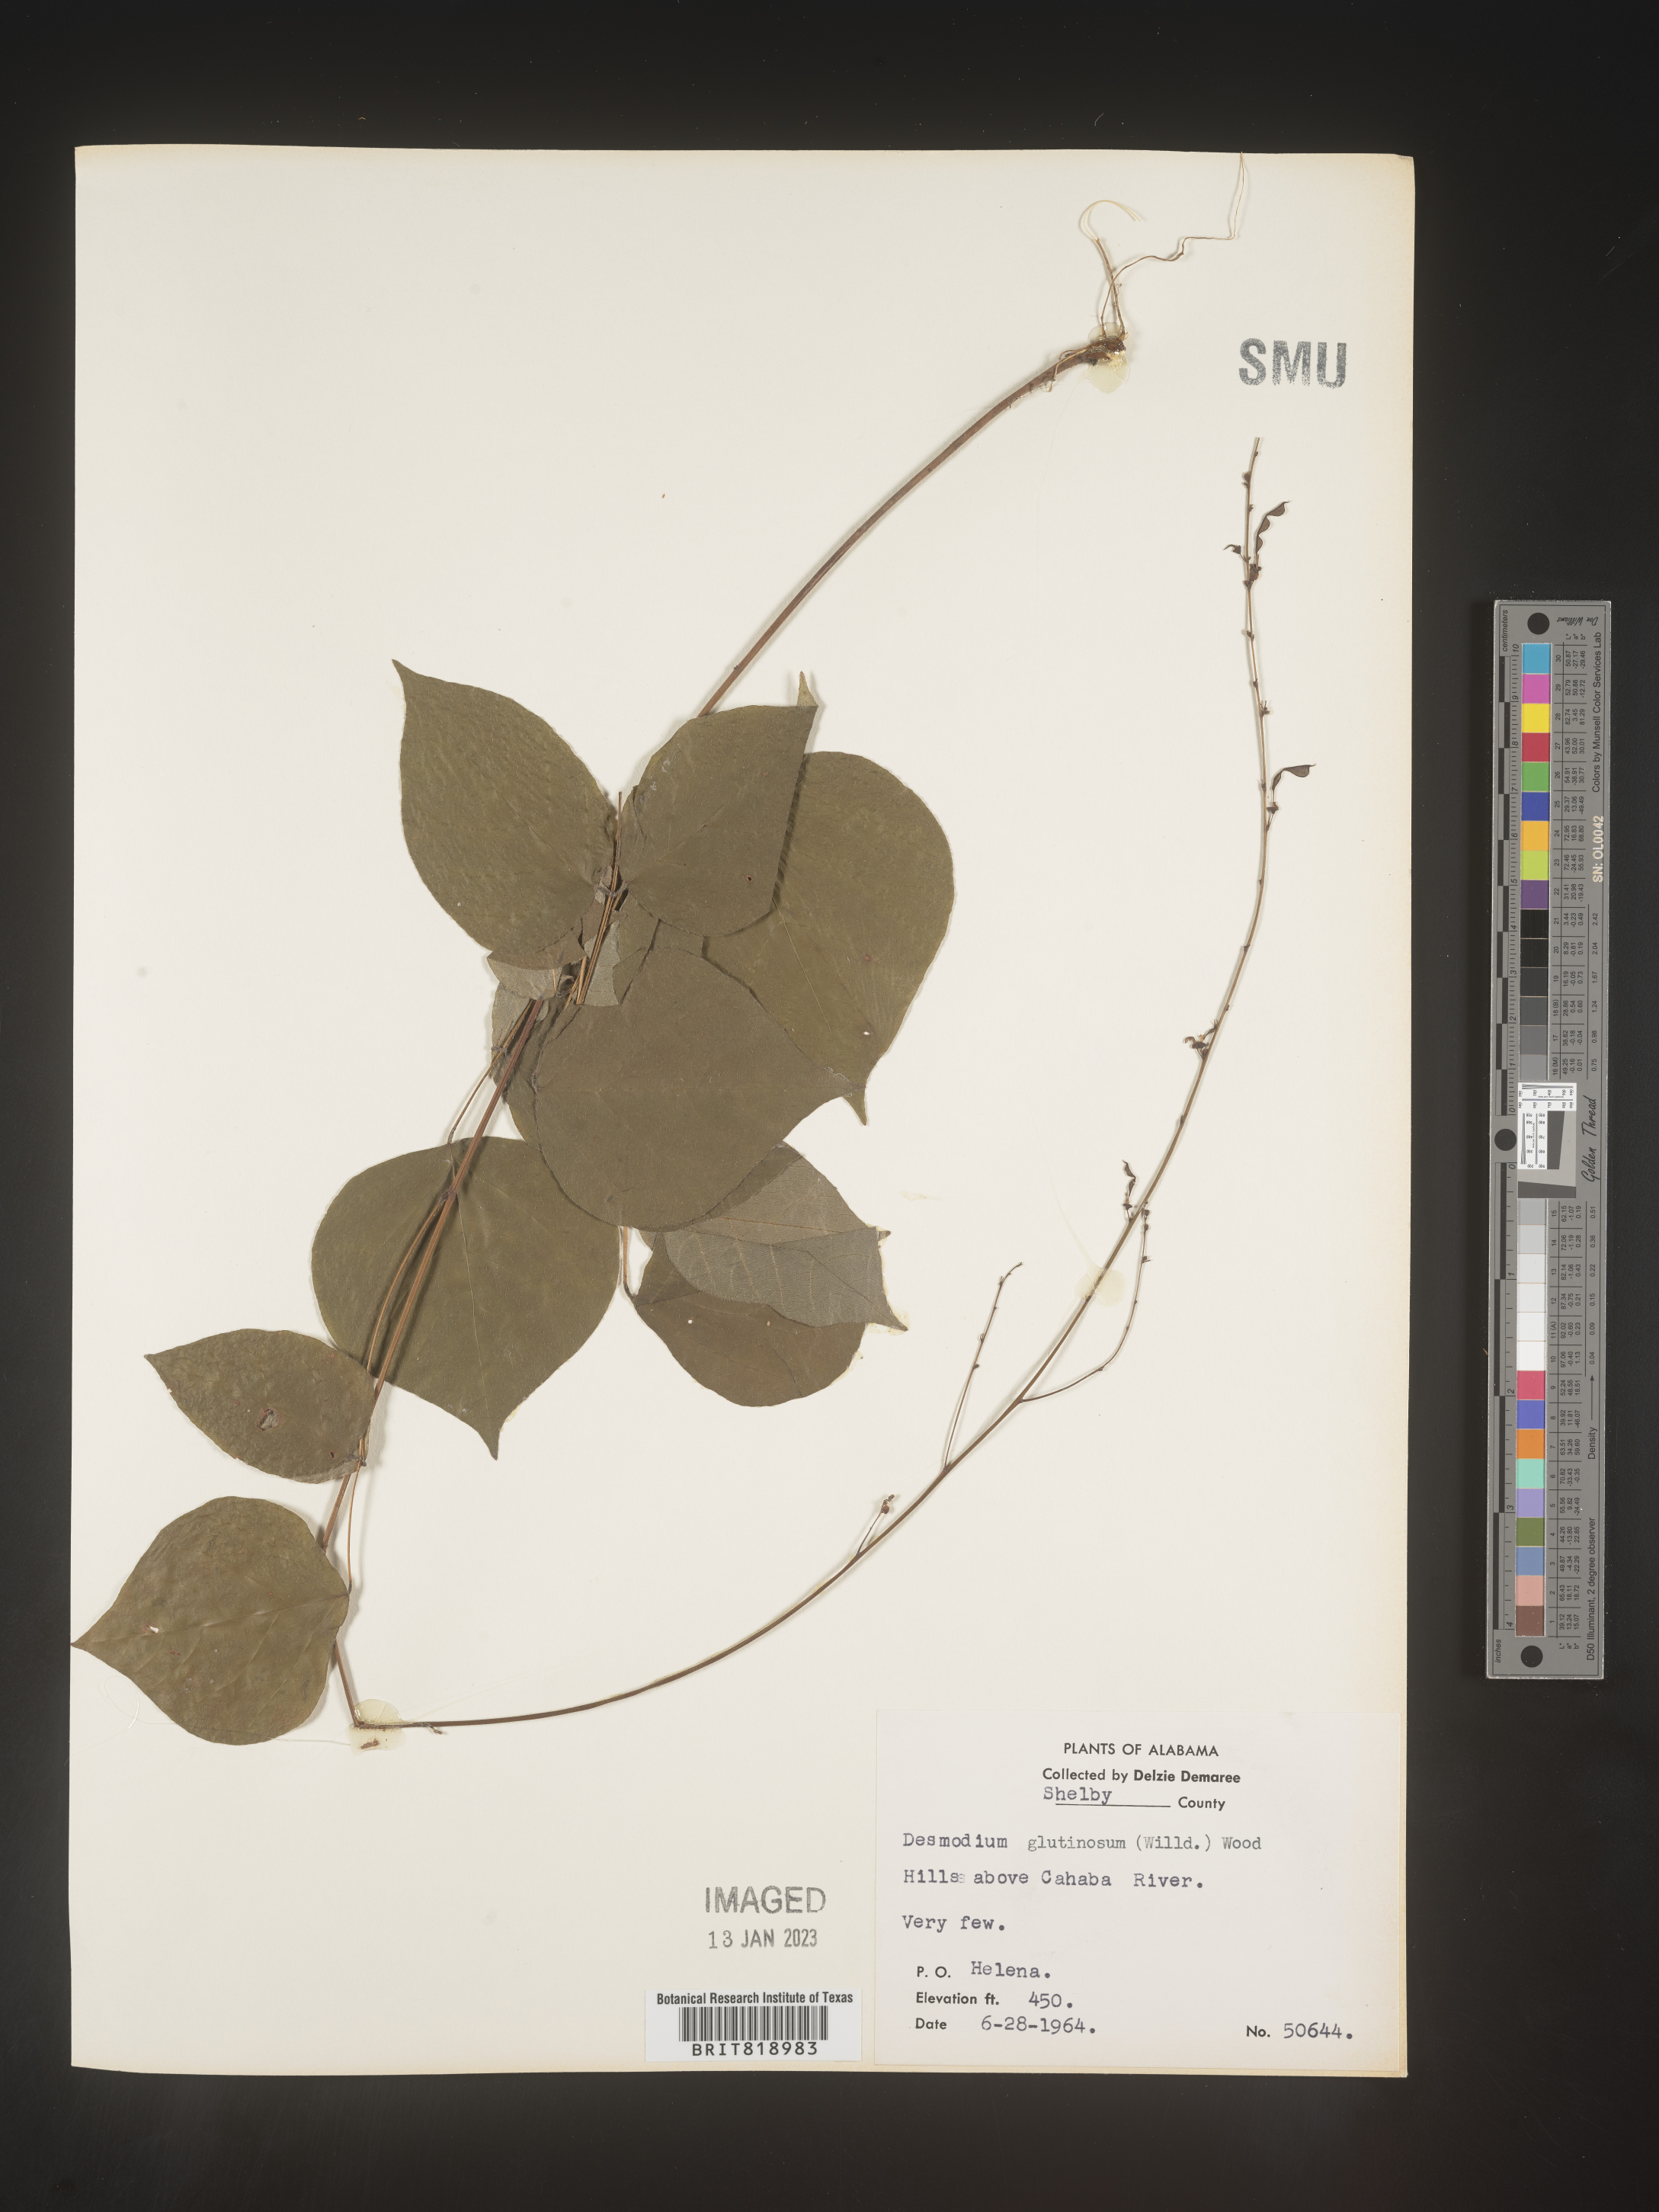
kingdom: Plantae
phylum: Tracheophyta
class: Magnoliopsida
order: Fabales
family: Fabaceae
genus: Hylodesmum
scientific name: Hylodesmum glutinosum
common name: Clustered-leaved tick-trefoil
